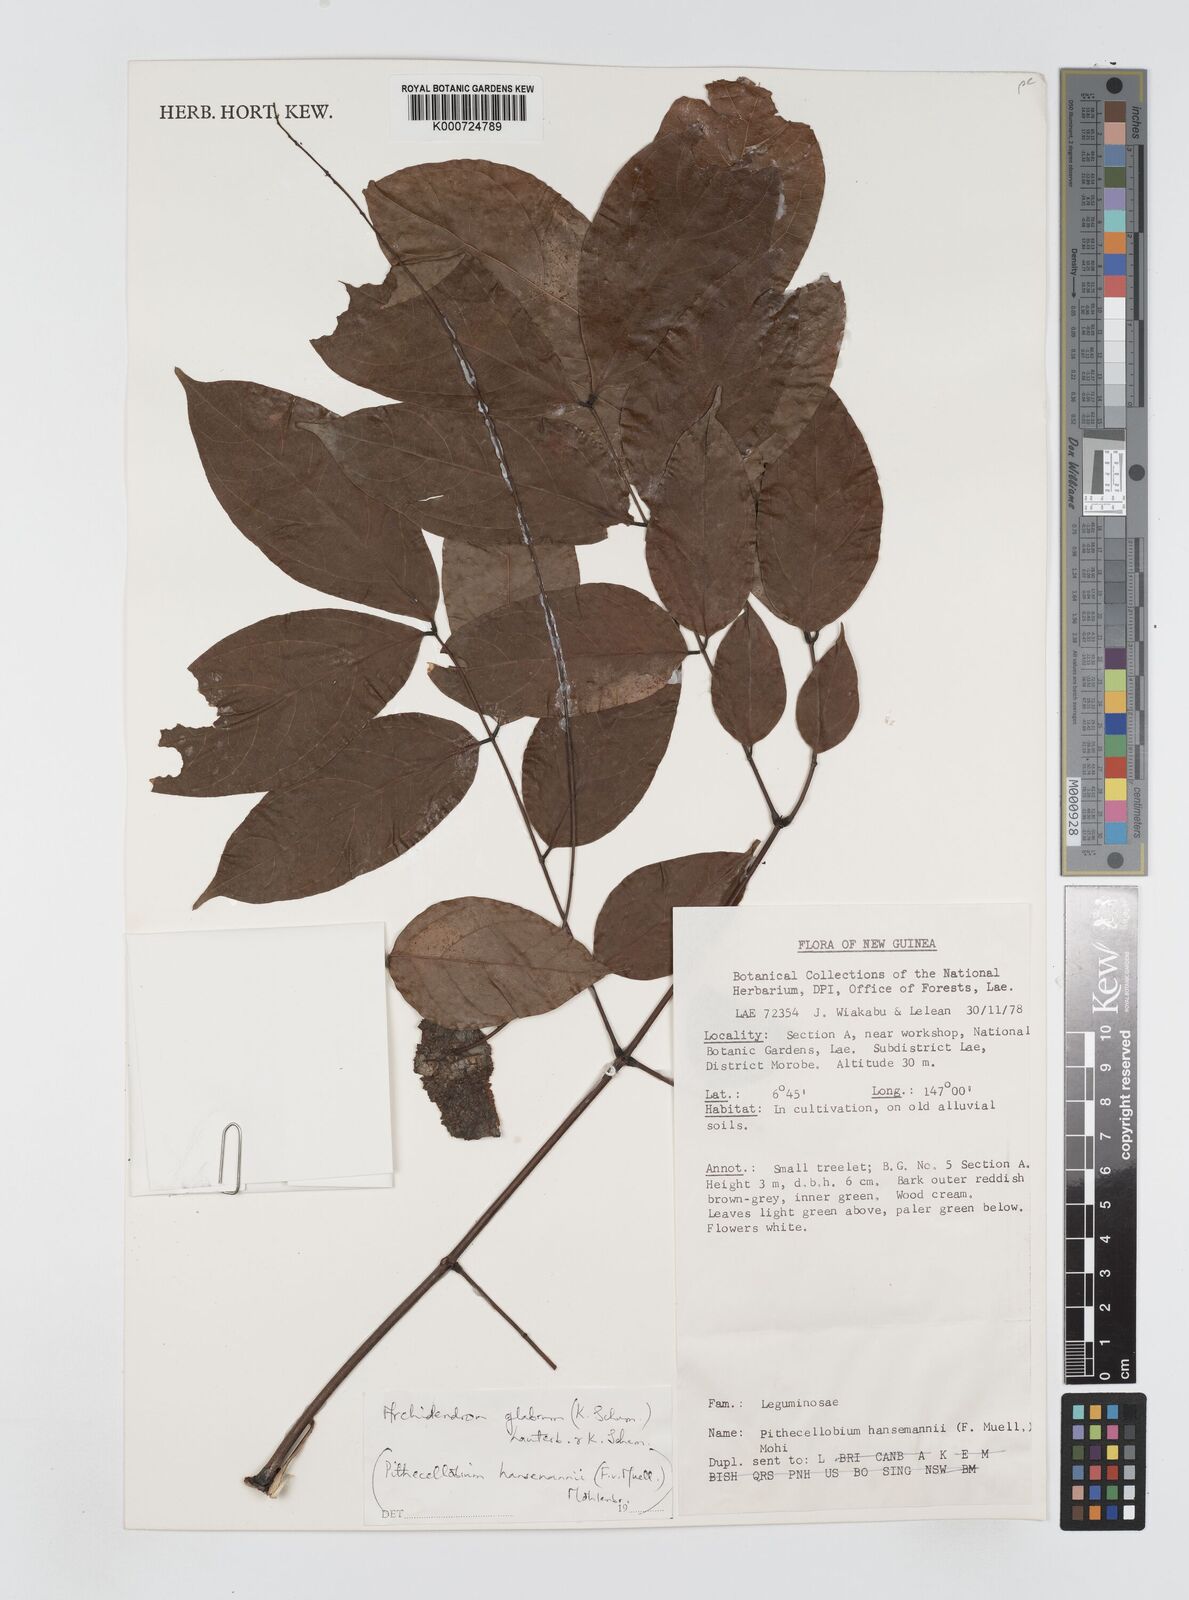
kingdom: Plantae
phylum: Tracheophyta
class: Magnoliopsida
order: Fabales
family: Fabaceae
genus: Archidendron
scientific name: Archidendron glabrum
